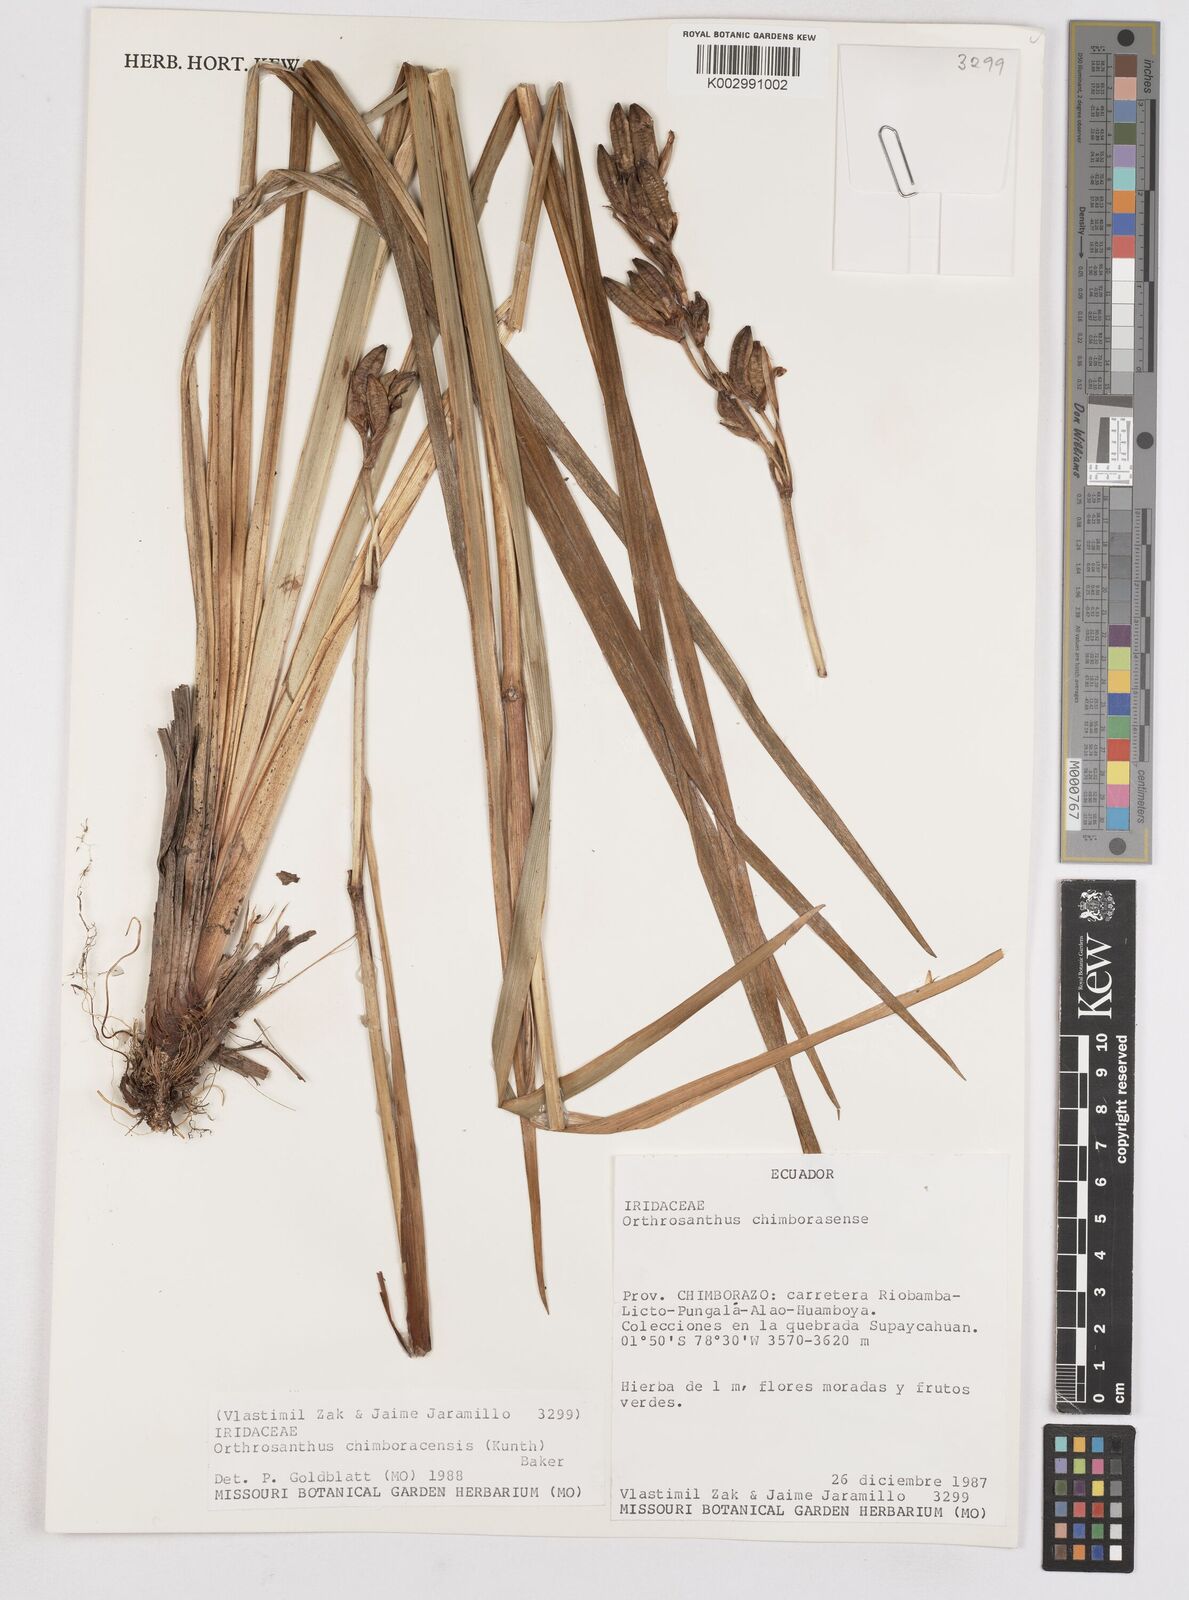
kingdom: Plantae
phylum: Tracheophyta
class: Liliopsida
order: Asparagales
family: Iridaceae
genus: Orthrosanthus
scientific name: Orthrosanthus chimboracensis
